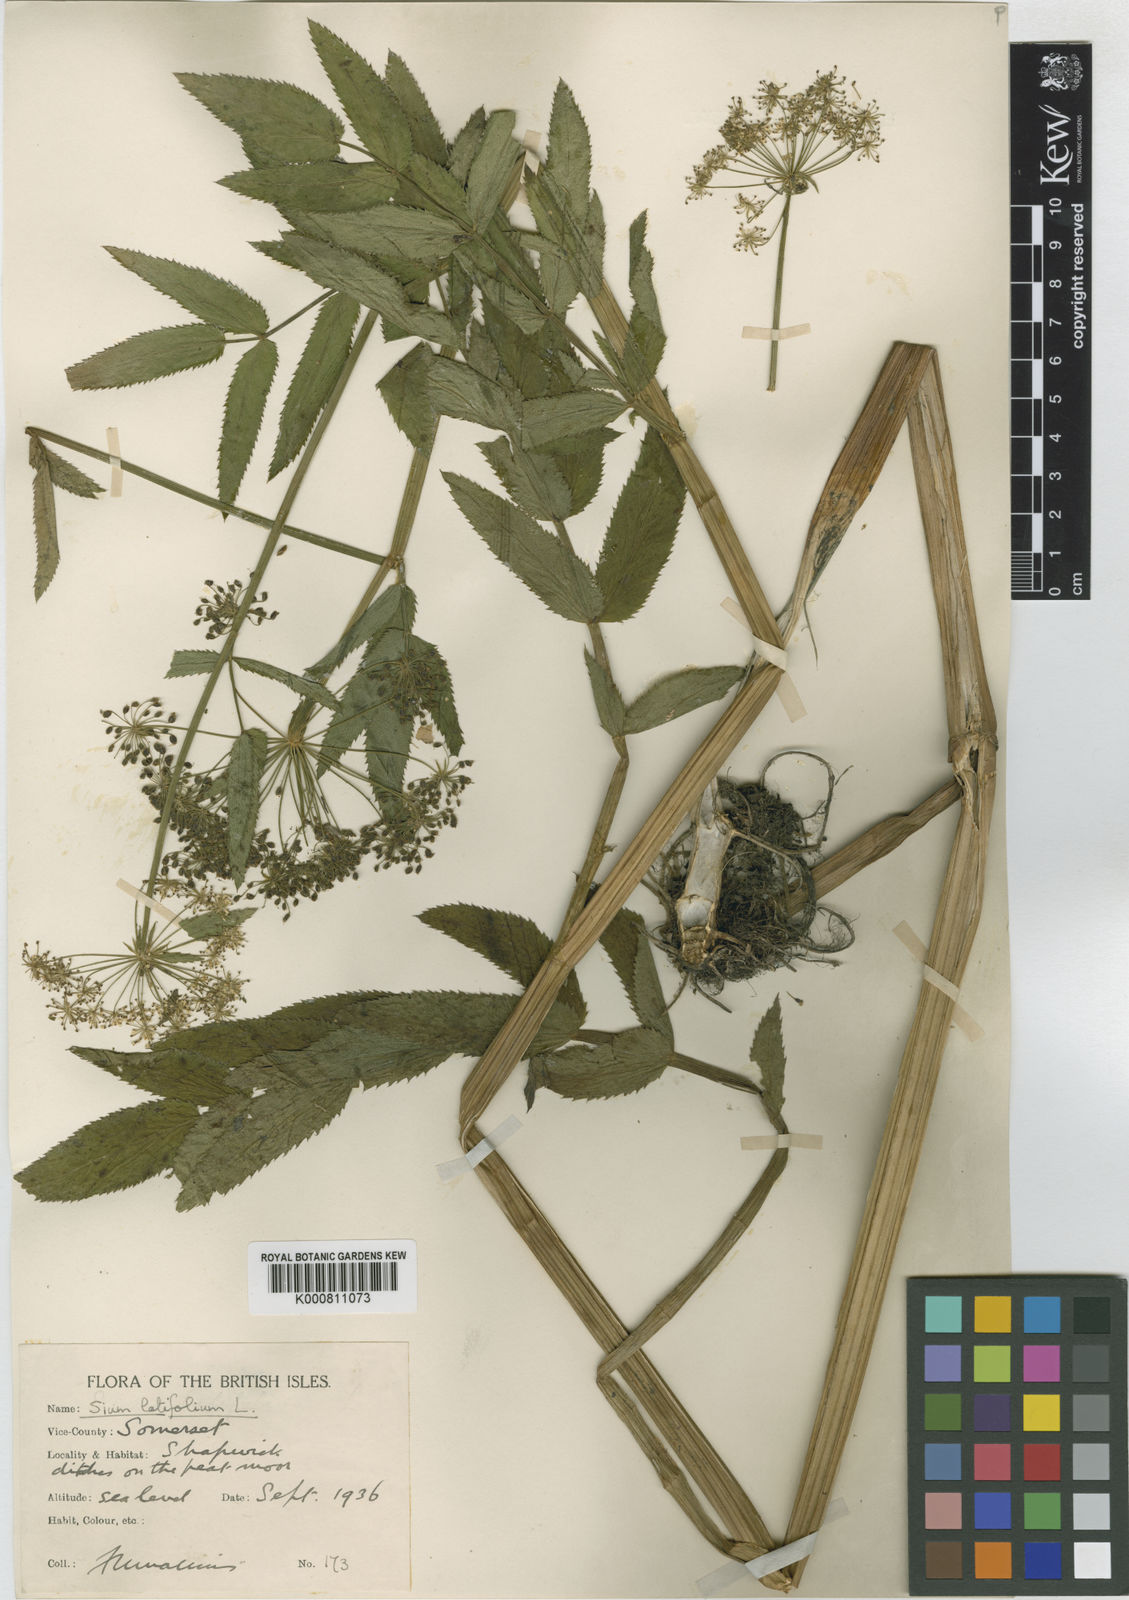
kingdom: Plantae
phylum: Tracheophyta
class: Magnoliopsida
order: Apiales
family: Apiaceae
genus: Sium
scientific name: Sium latifolium
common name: Greater water-parsnip
